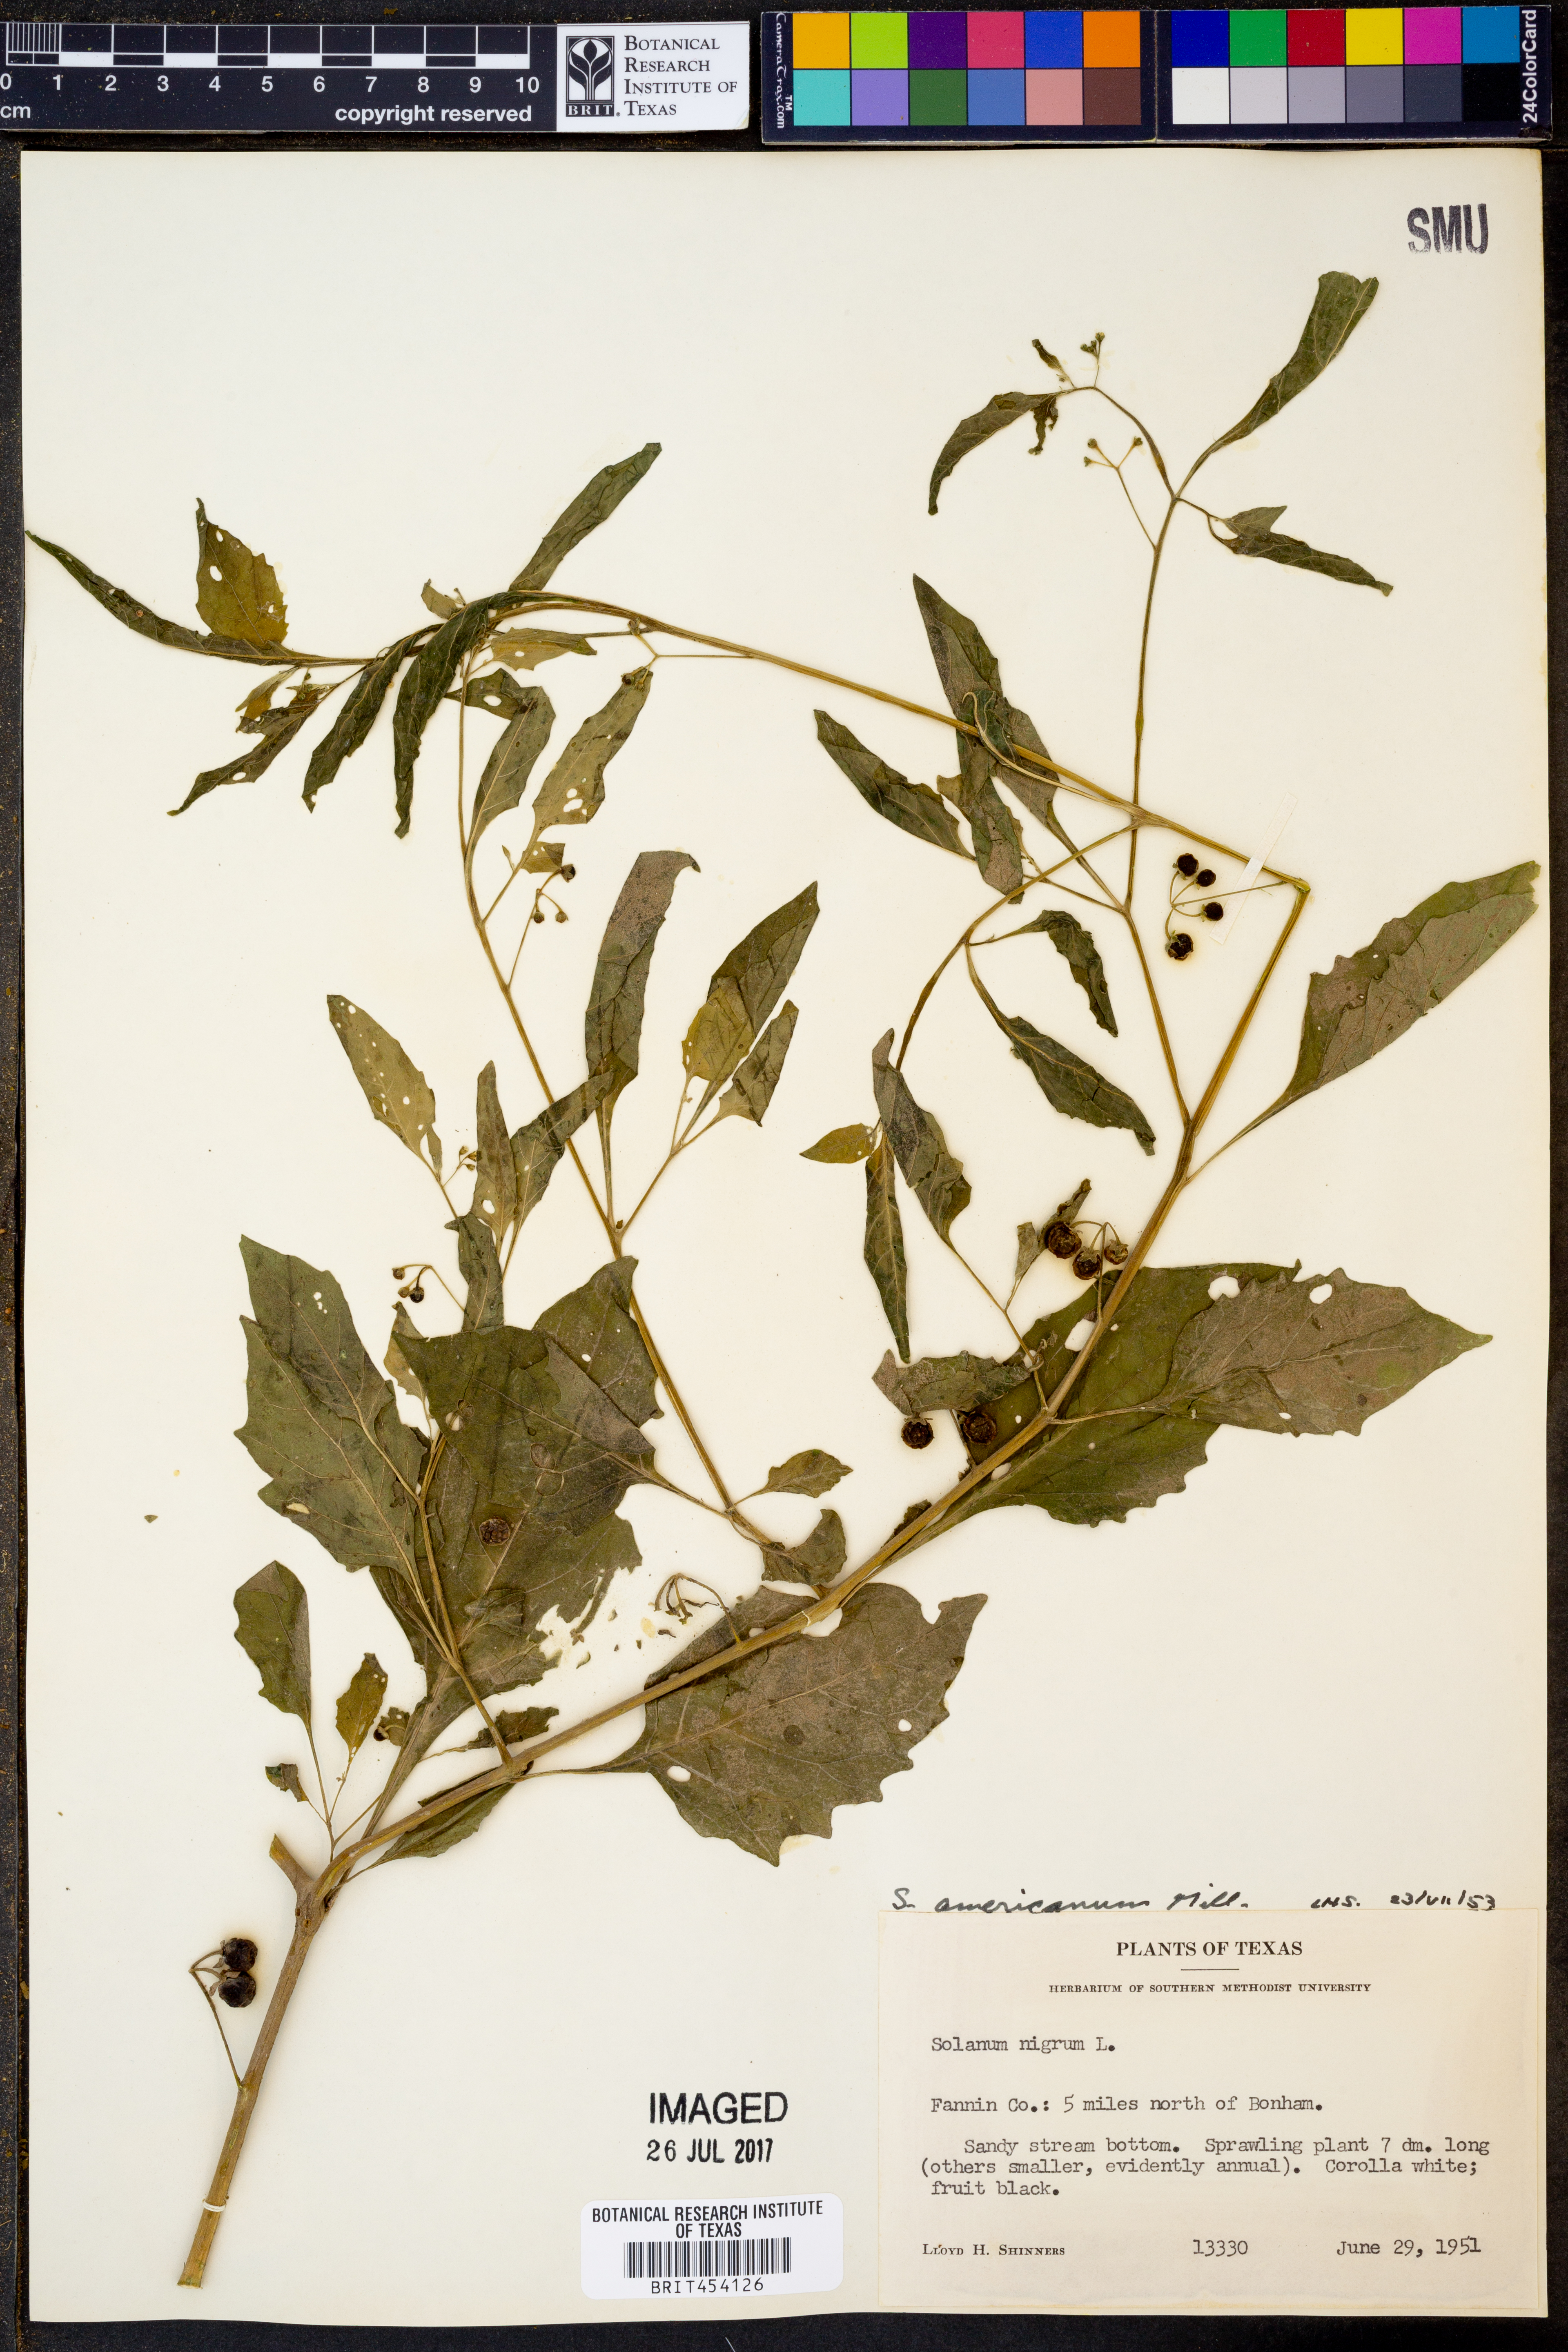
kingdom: Plantae
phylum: Tracheophyta
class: Magnoliopsida
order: Solanales
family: Solanaceae
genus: Solanum
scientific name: Solanum americanum
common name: American black nightshade
